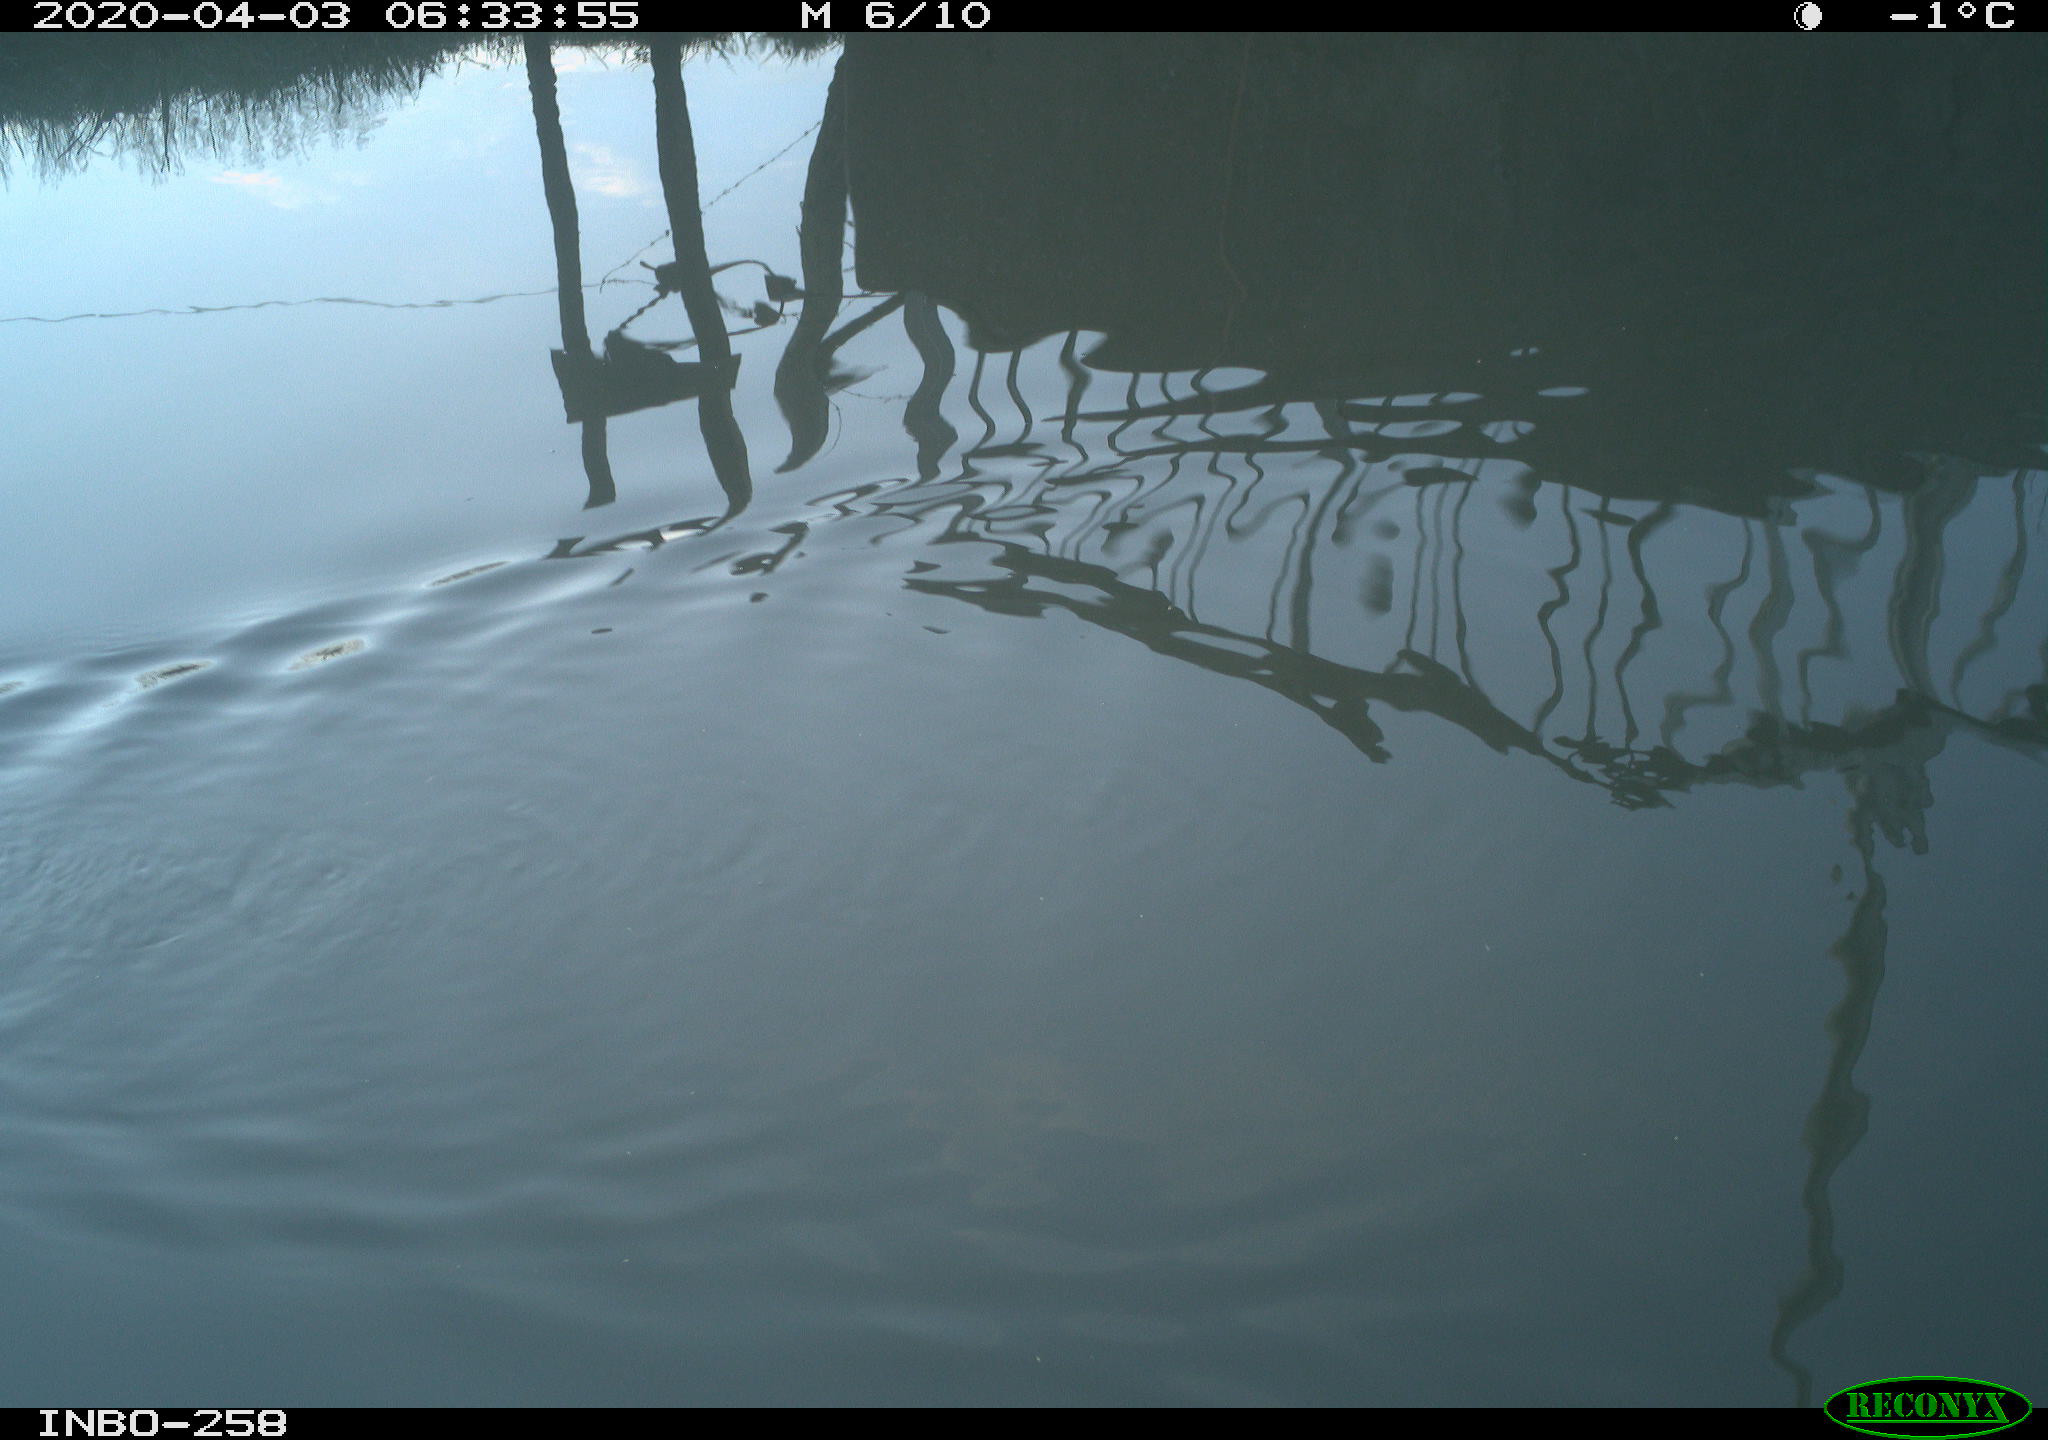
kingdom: Animalia
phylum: Chordata
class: Aves
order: Gruiformes
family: Rallidae
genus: Gallinula
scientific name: Gallinula chloropus
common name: Common moorhen
